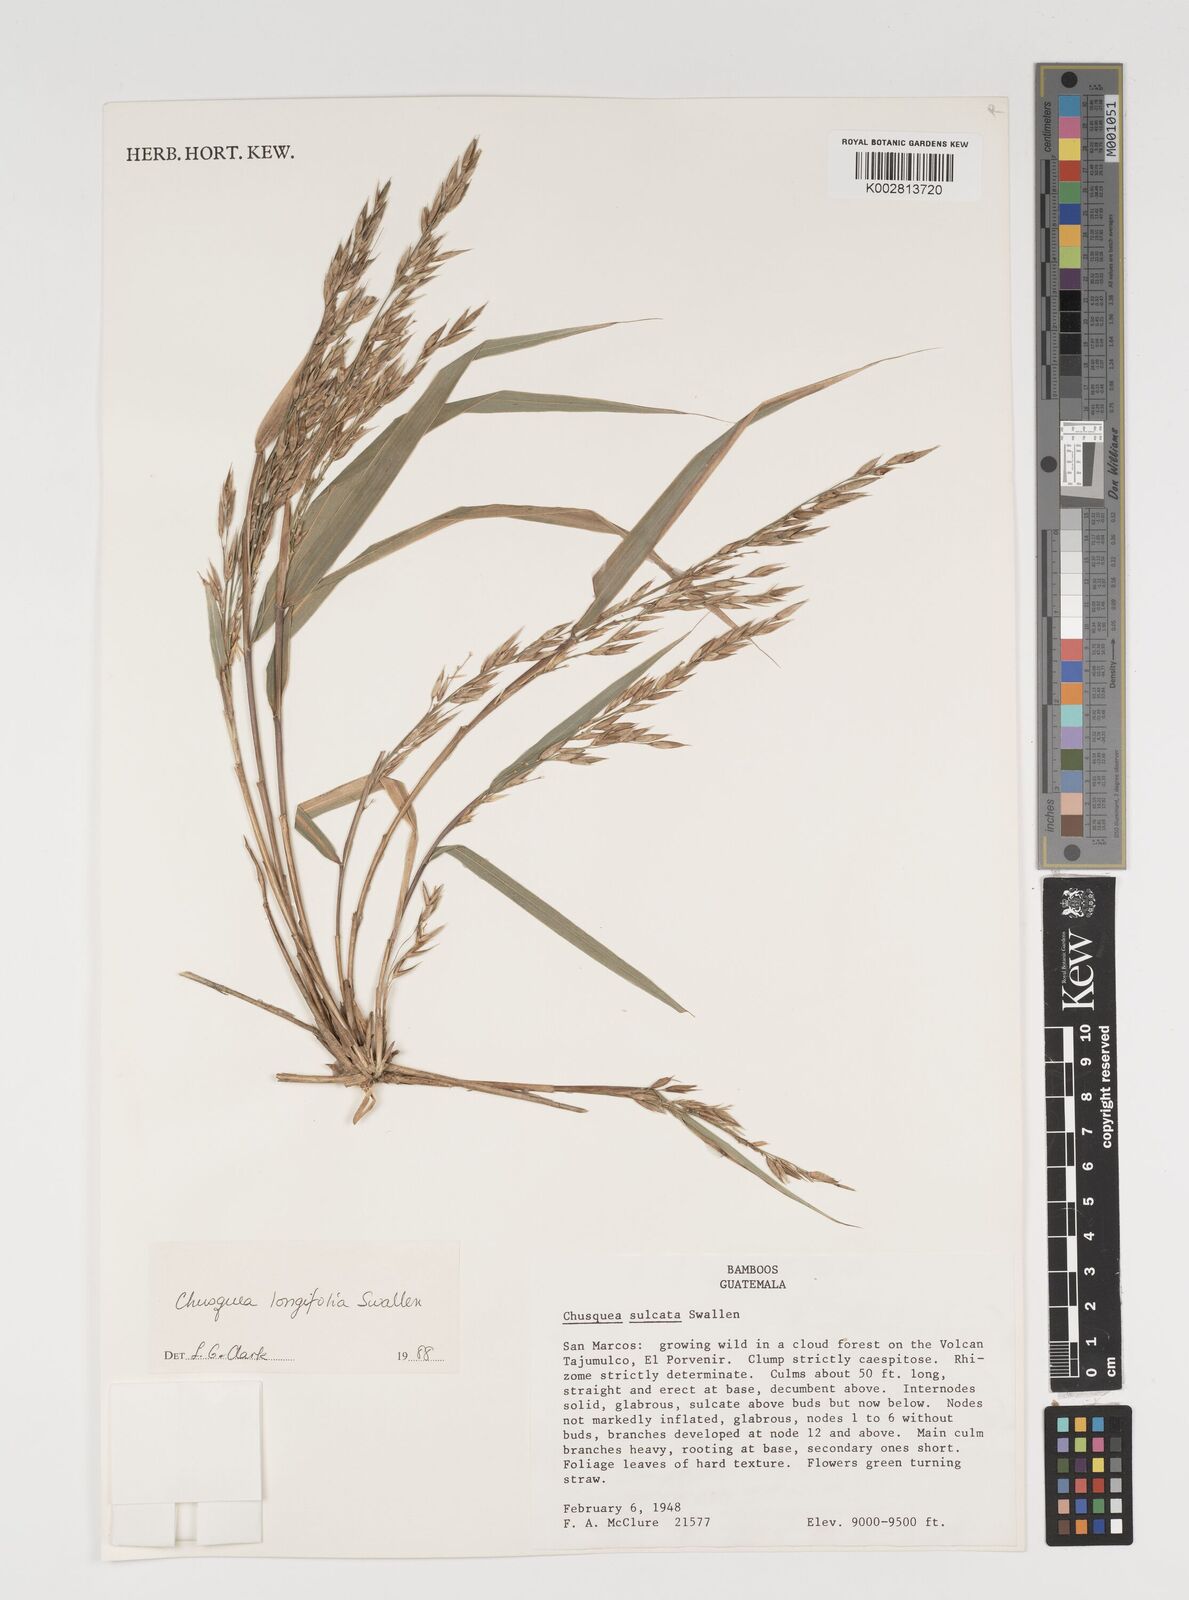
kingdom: Plantae
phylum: Tracheophyta
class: Liliopsida
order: Poales
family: Poaceae
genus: Chusquea
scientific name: Chusquea longifolia
